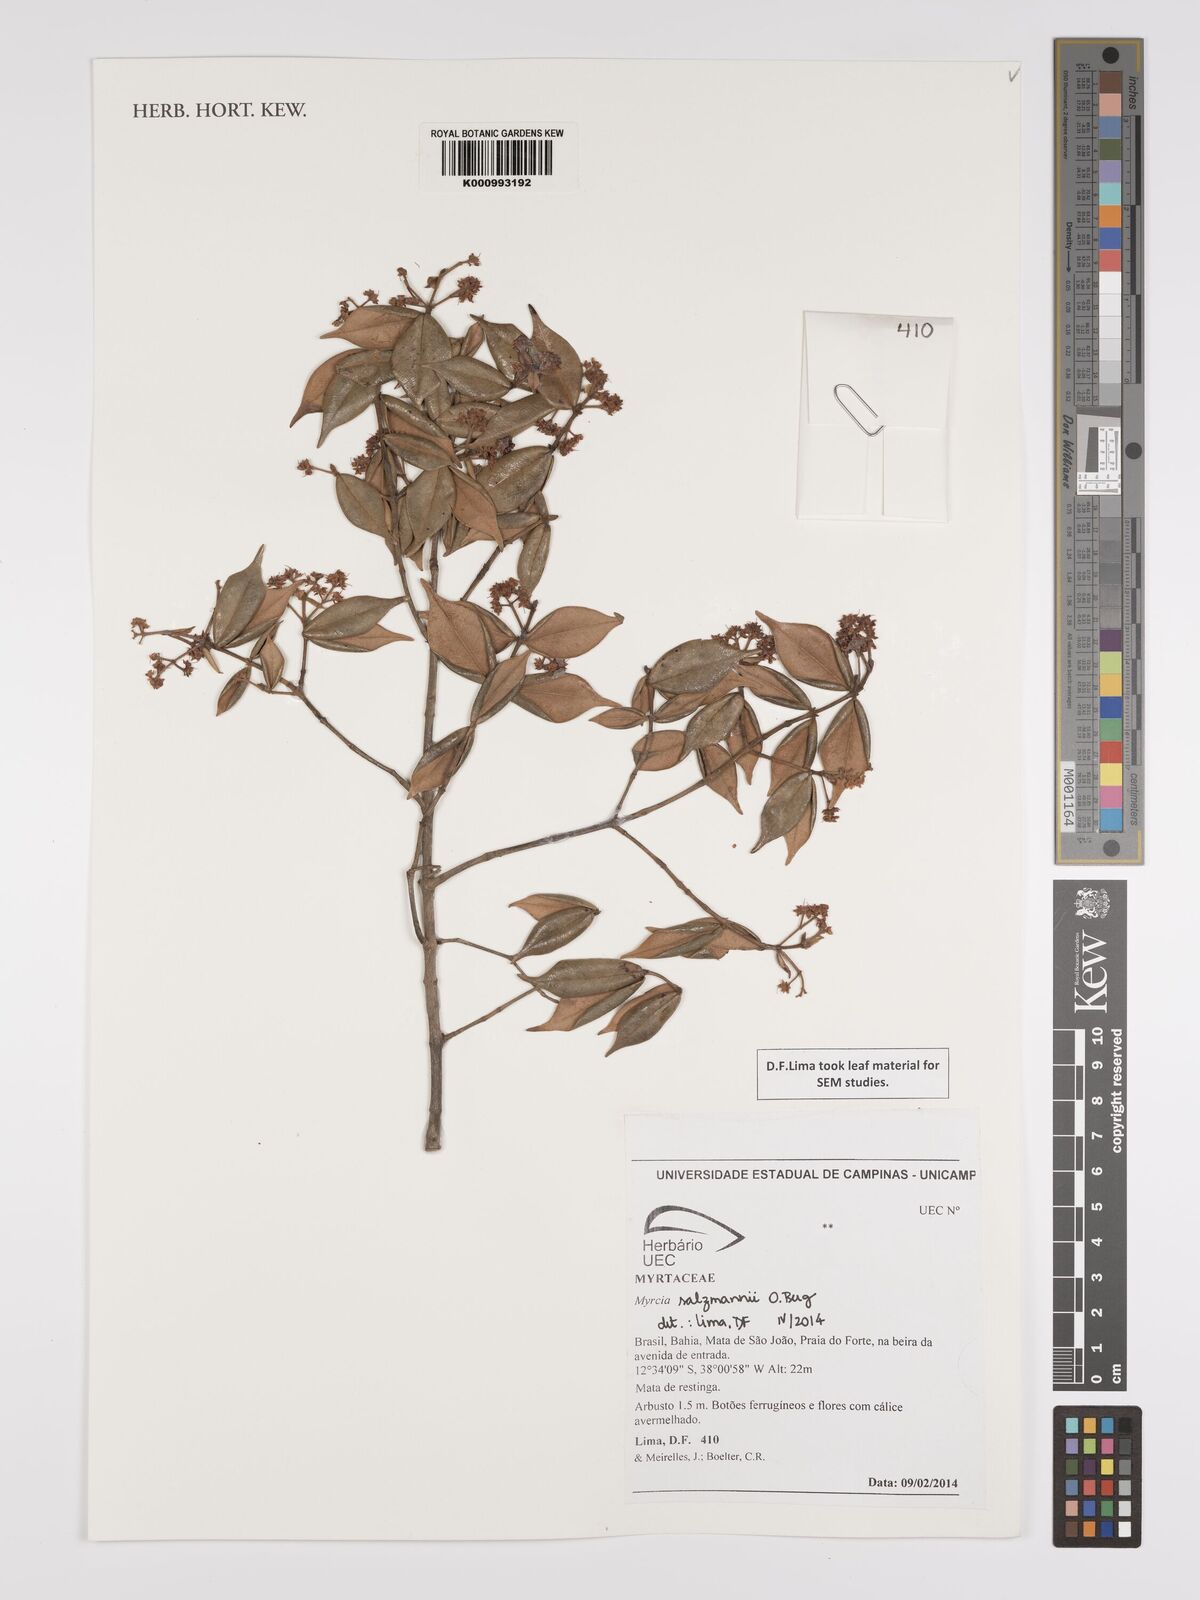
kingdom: Plantae
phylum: Tracheophyta
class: Magnoliopsida
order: Myrtales
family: Myrtaceae
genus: Myrcia
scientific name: Myrcia salzmannii
